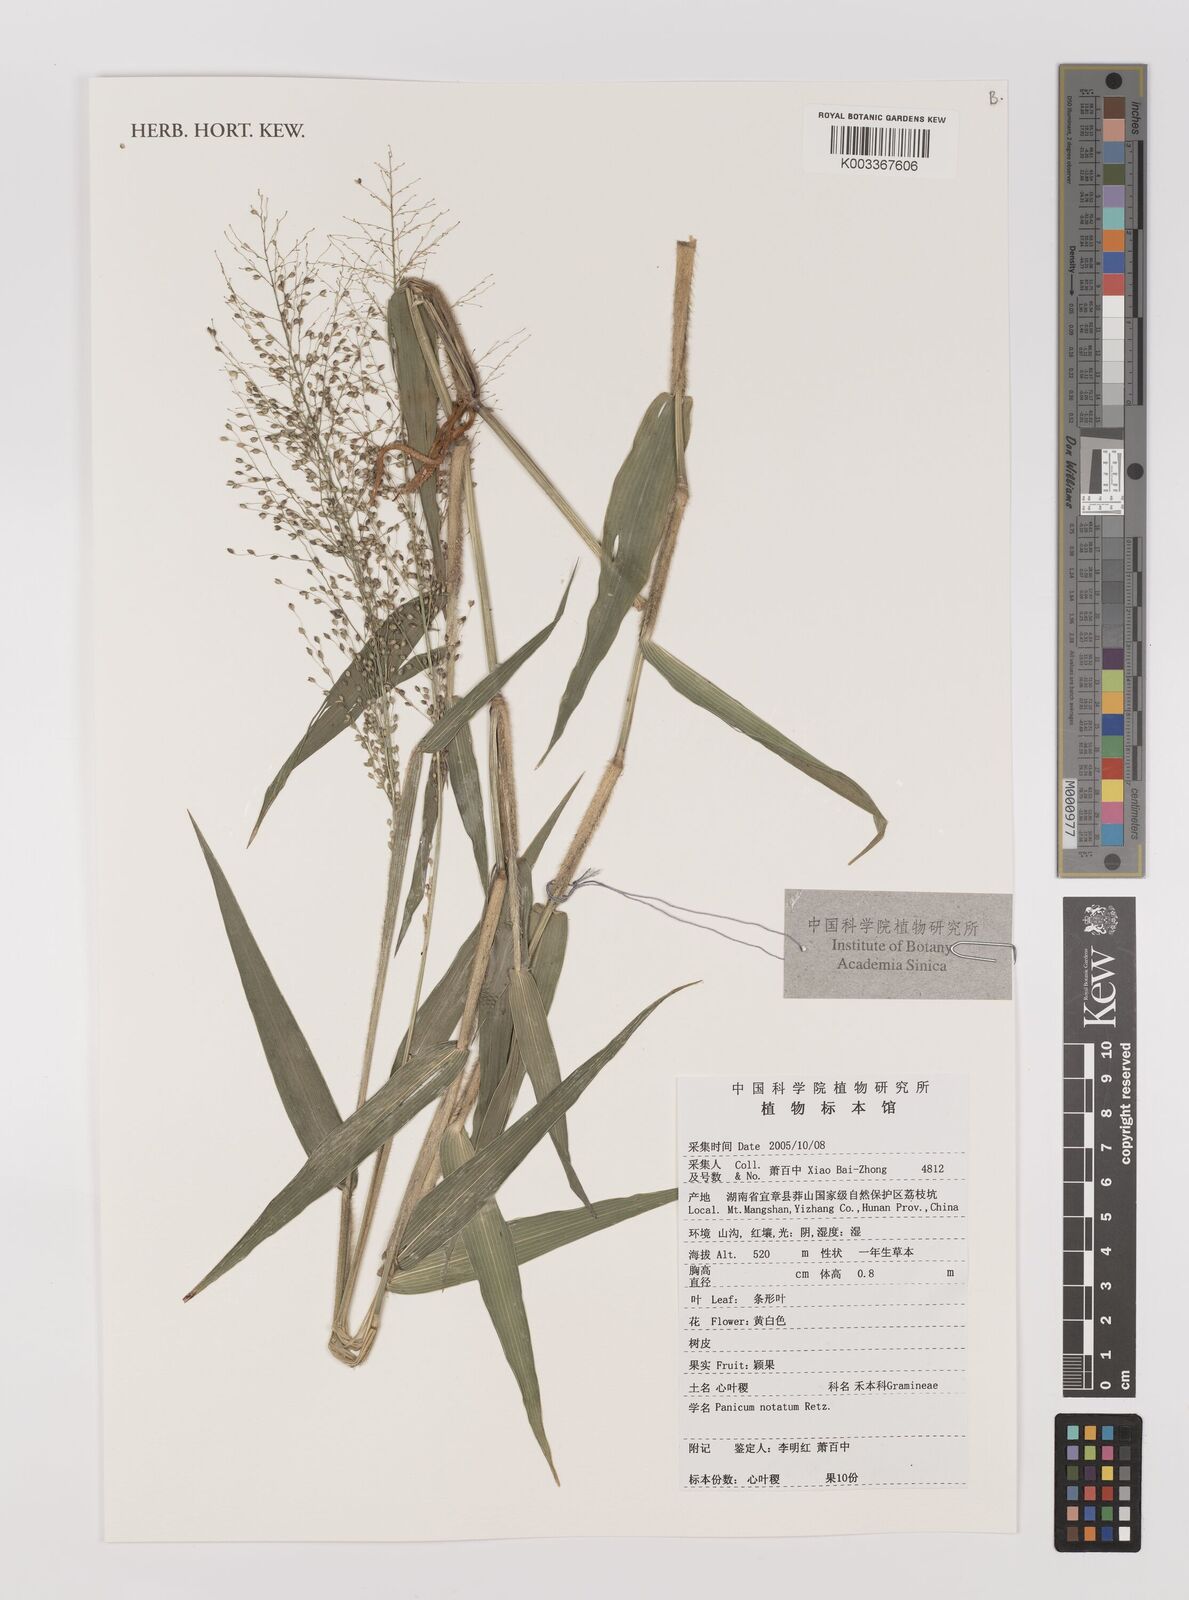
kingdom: Plantae
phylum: Tracheophyta
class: Liliopsida
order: Poales
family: Poaceae
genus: Panicum
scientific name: Panicum notatum
